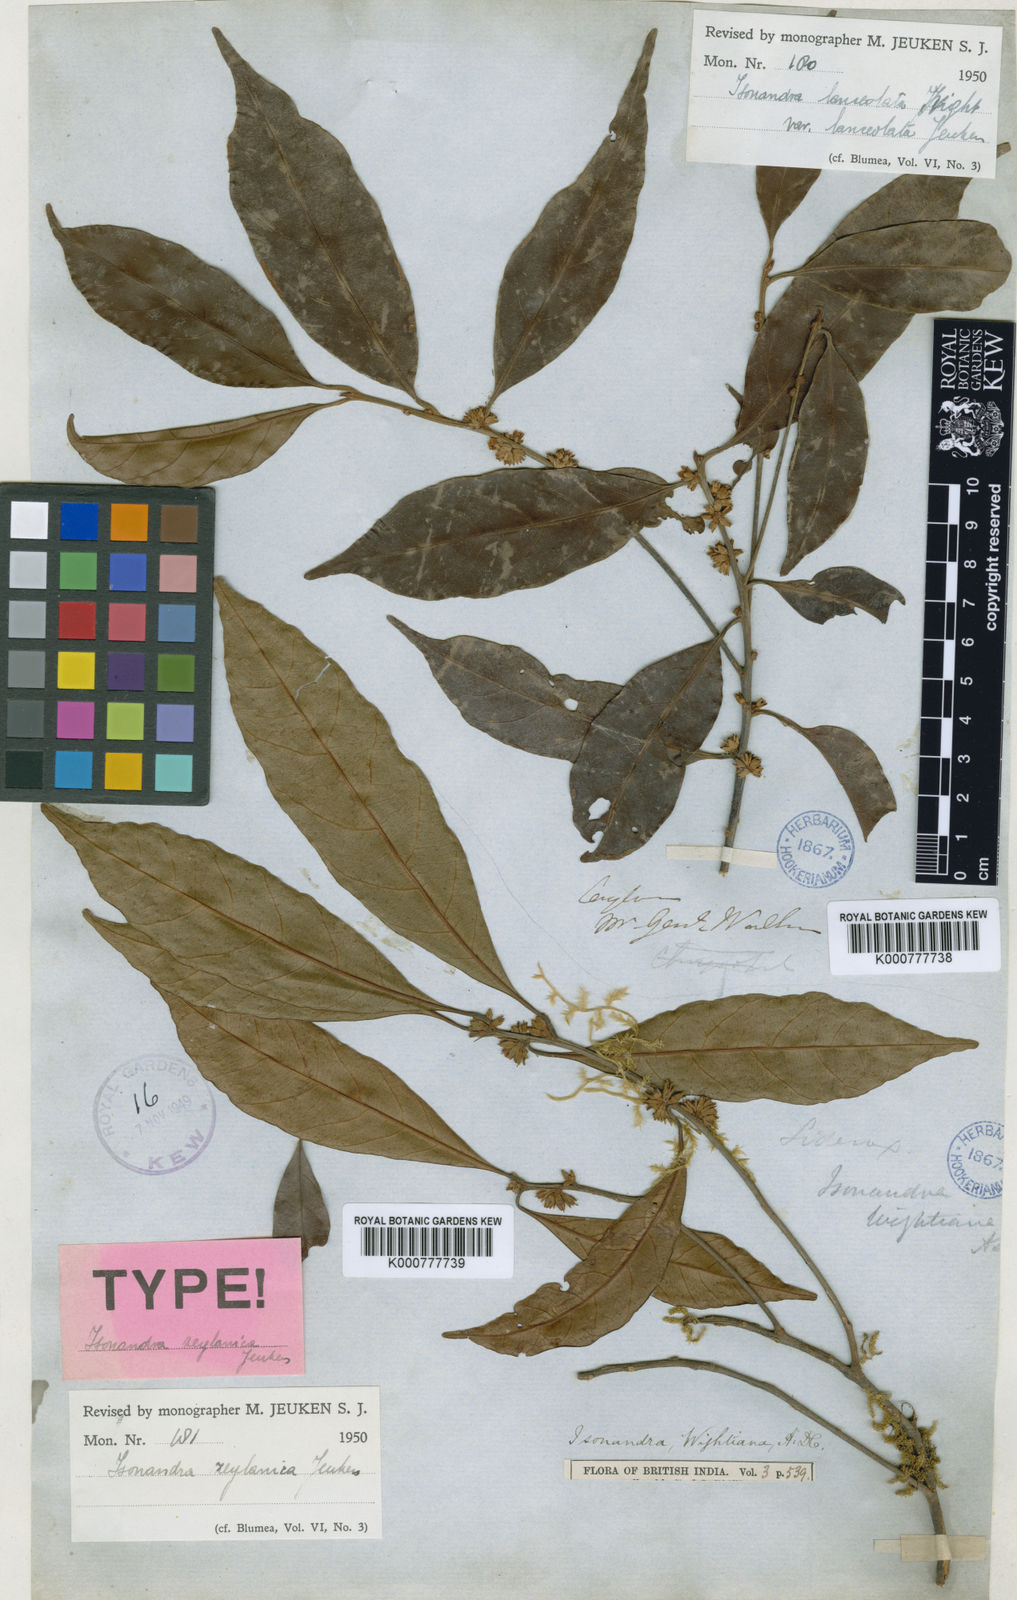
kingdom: Plantae
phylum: Tracheophyta
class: Magnoliopsida
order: Ericales
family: Sapotaceae
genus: Isonandra
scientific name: Isonandra zeylanica
